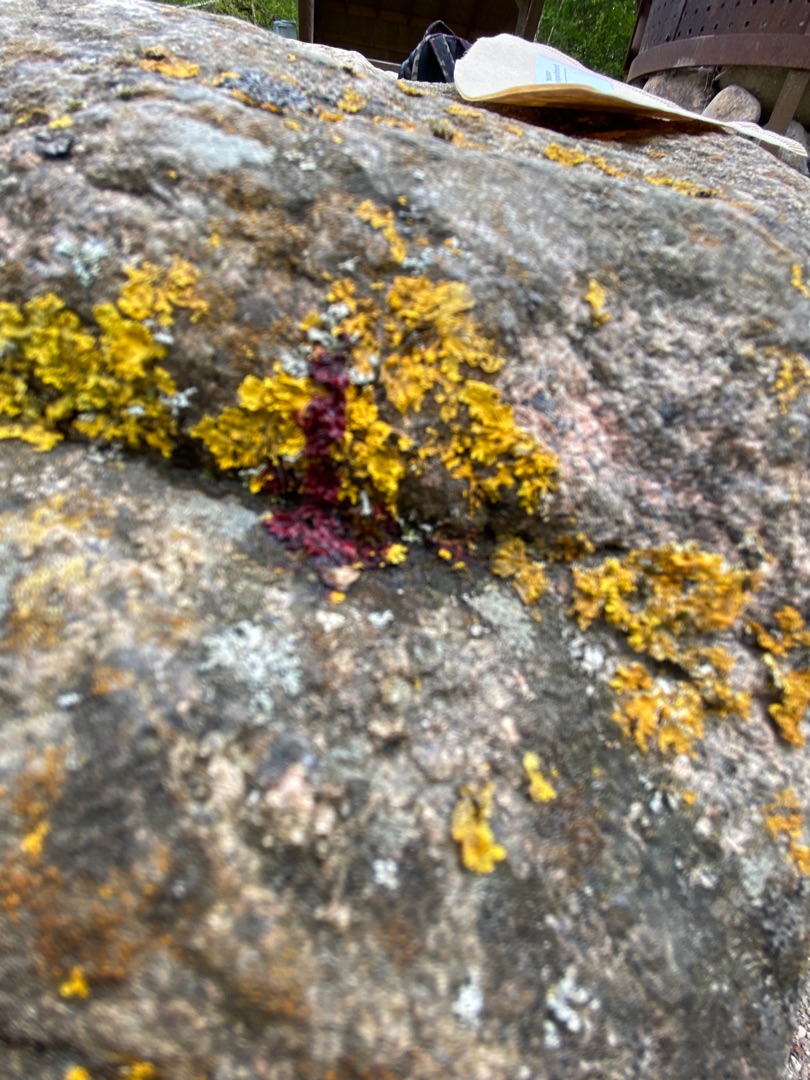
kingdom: Fungi
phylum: Ascomycota
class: Lecanoromycetes
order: Teloschistales
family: Teloschistaceae
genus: Xanthoria
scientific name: Xanthoria parietina
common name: Almindelig væggelav
